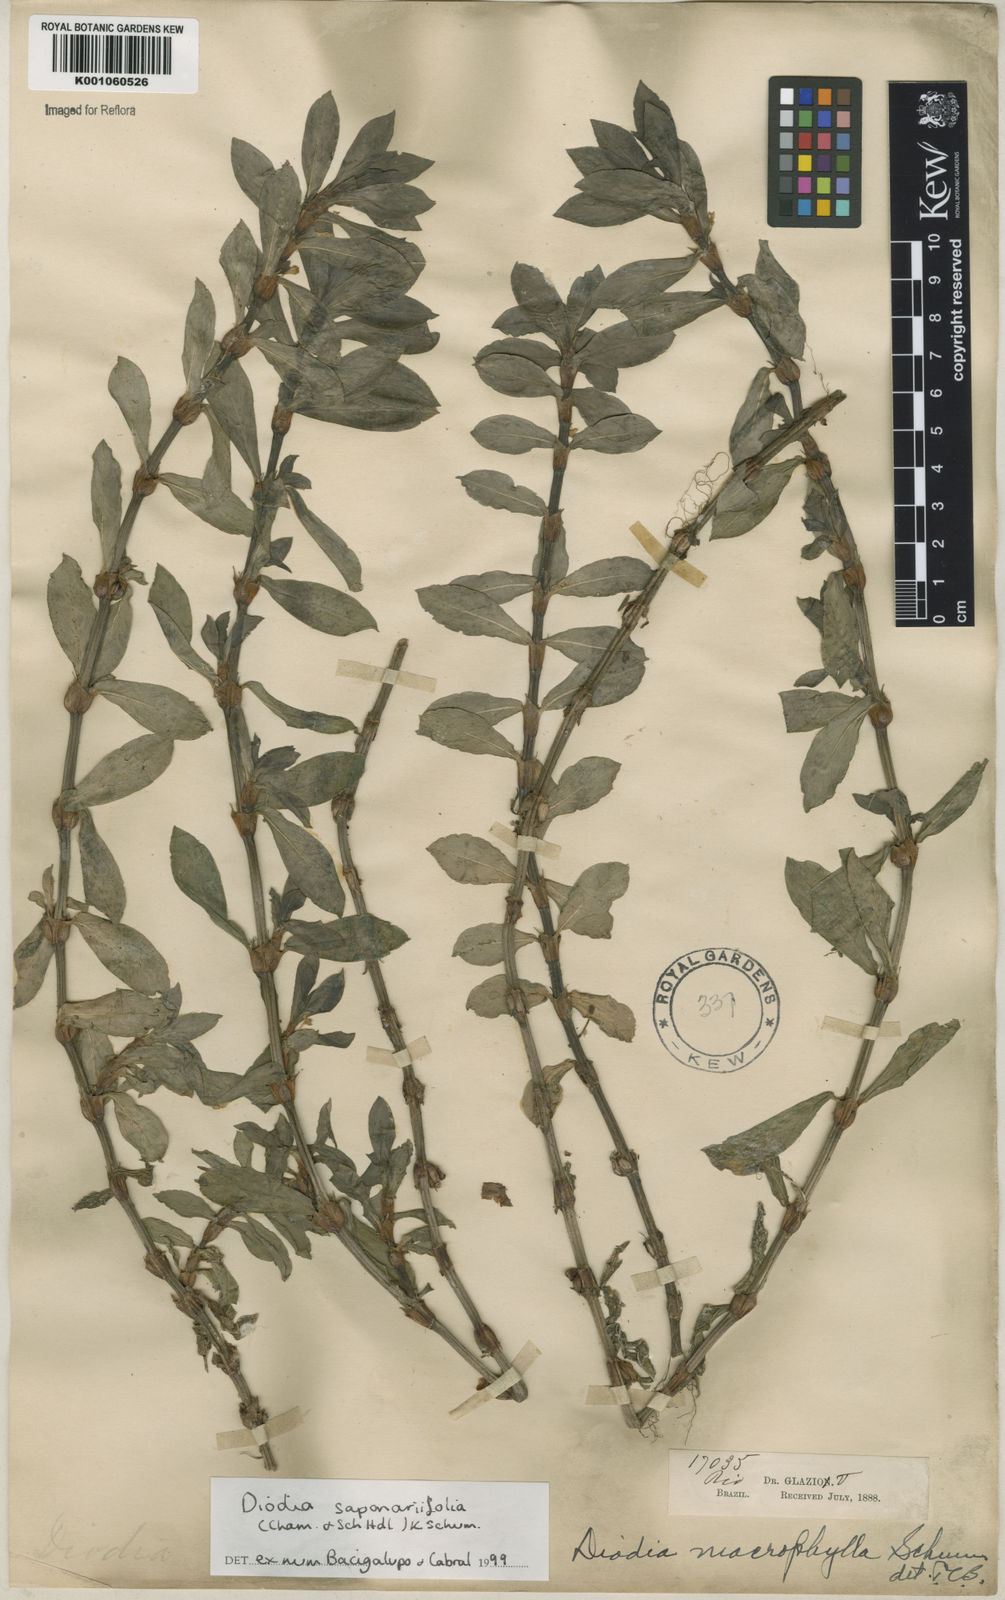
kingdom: Plantae
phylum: Tracheophyta
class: Magnoliopsida
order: Gentianales
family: Rubiaceae
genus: Diodia
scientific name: Diodia saponariifolia
